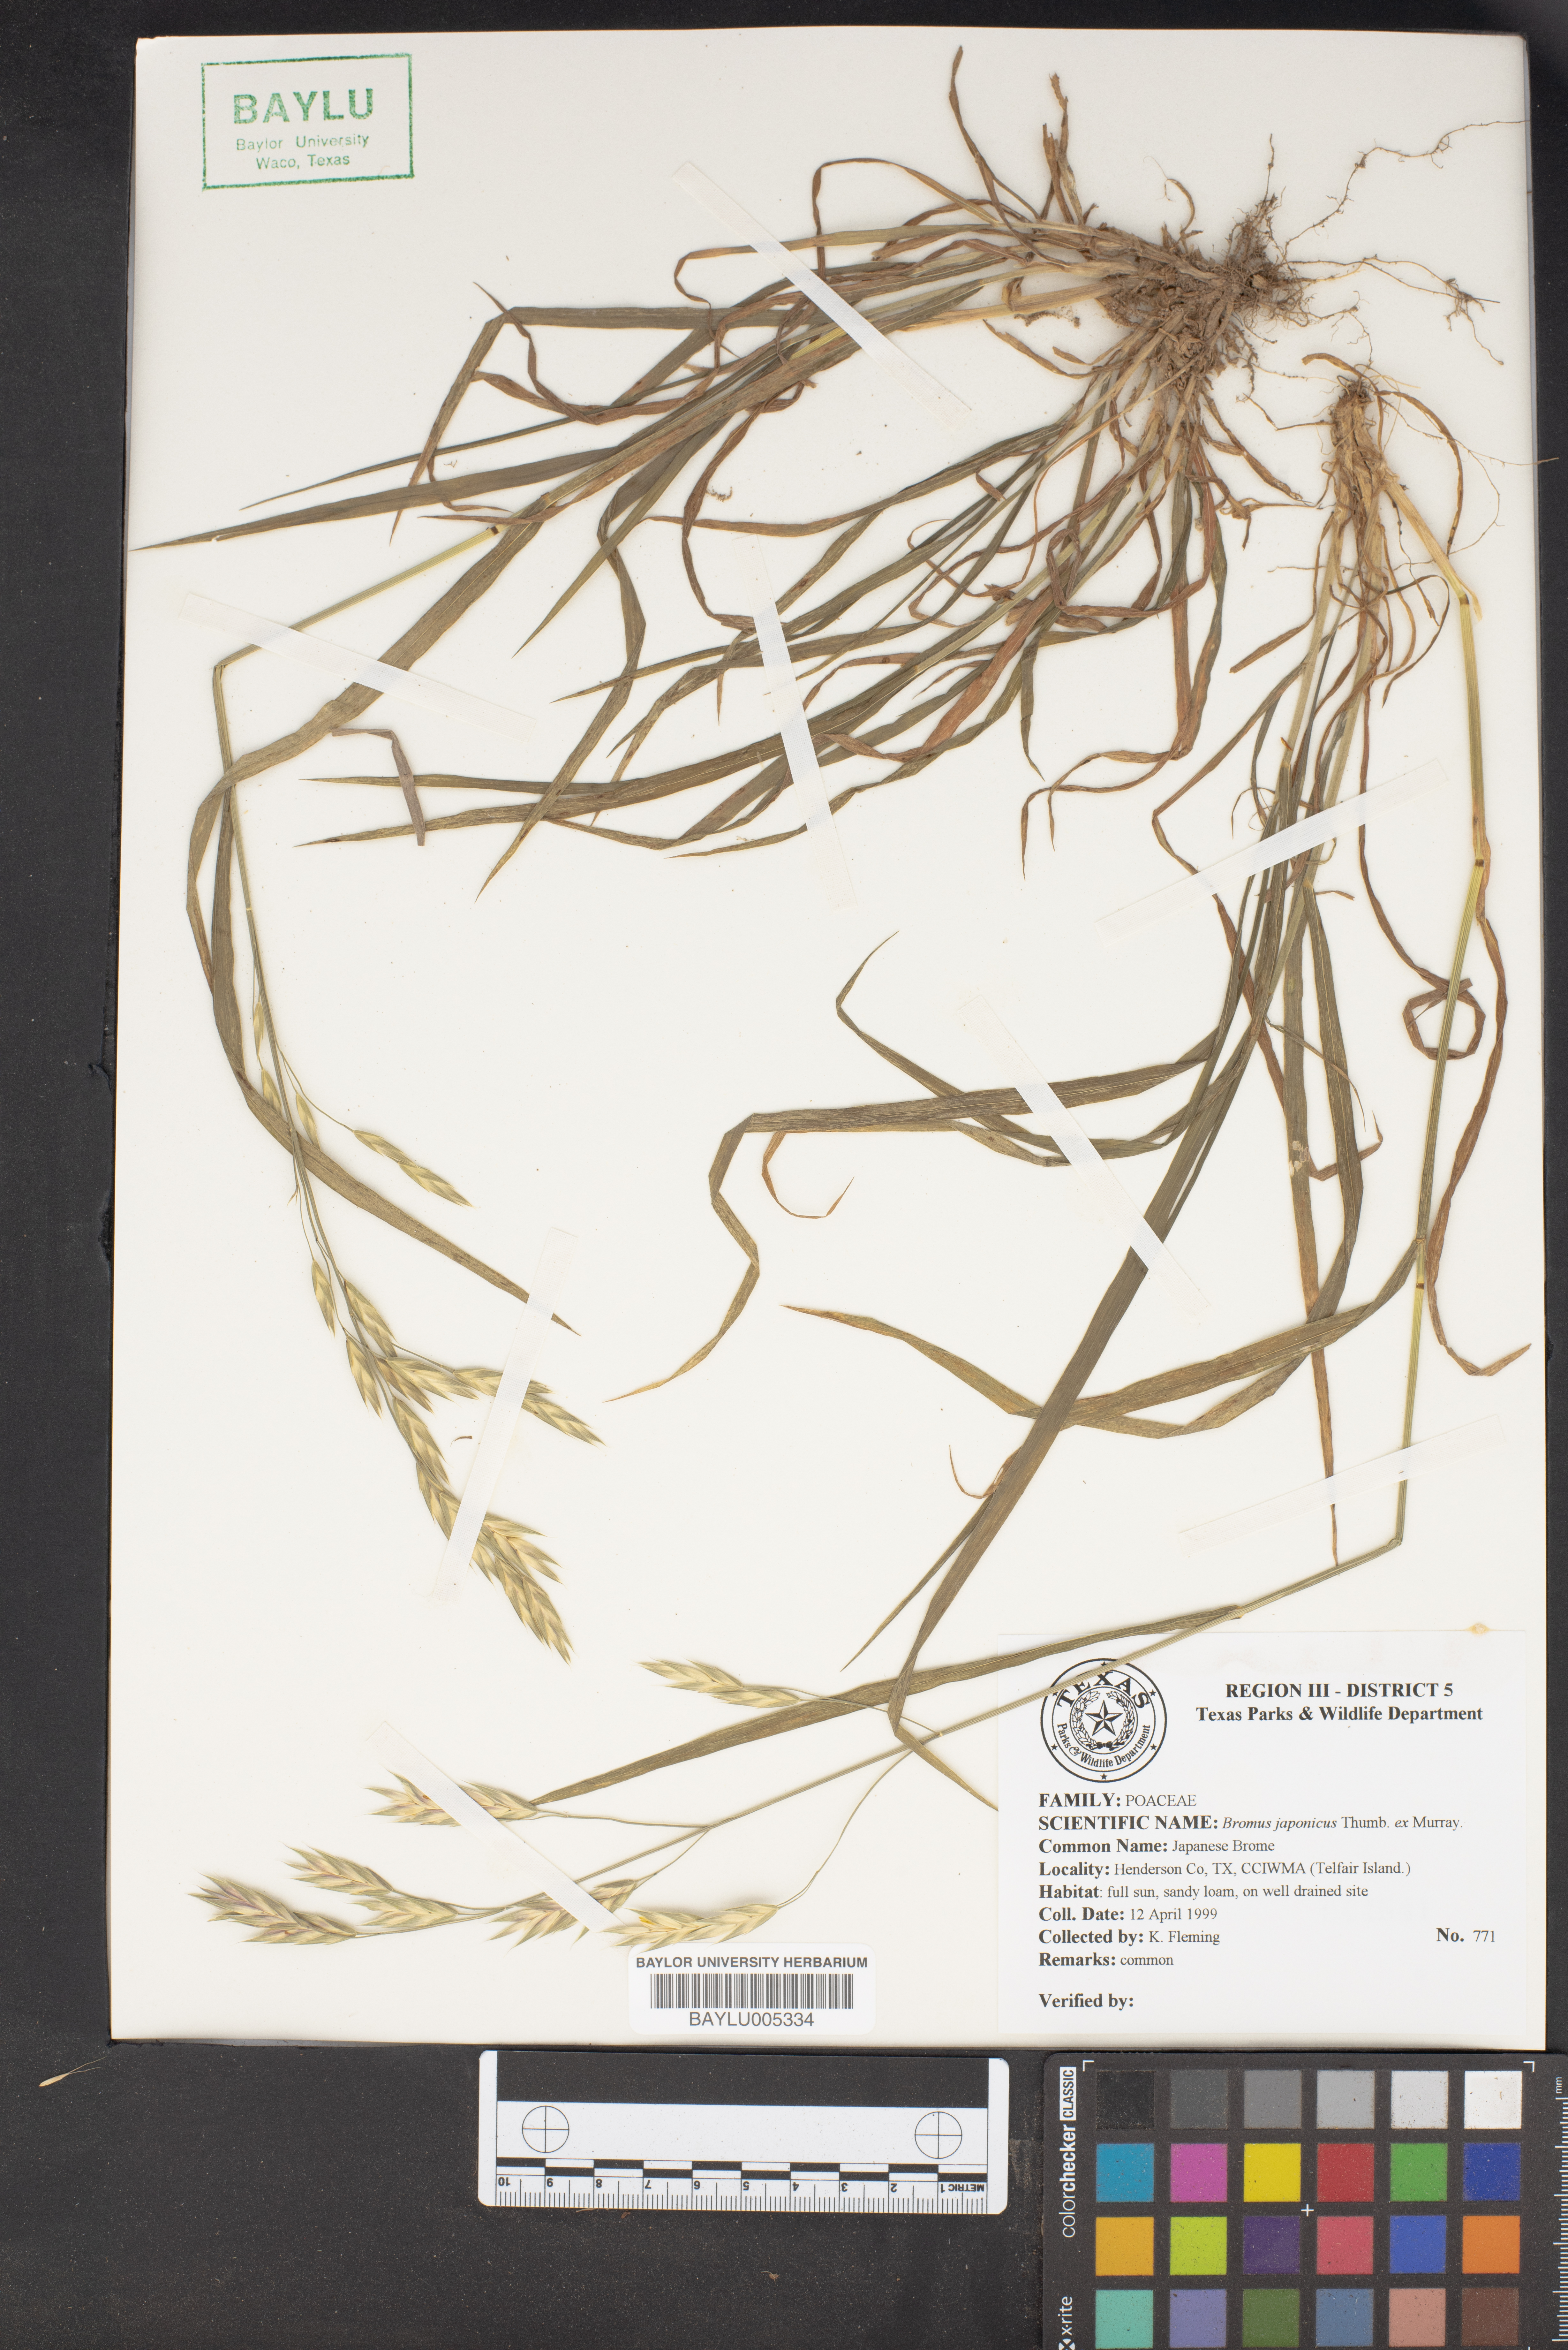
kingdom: Plantae
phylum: Tracheophyta
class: Liliopsida
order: Poales
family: Poaceae
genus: Bromus
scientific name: Bromus japonicus
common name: Japanese brome
